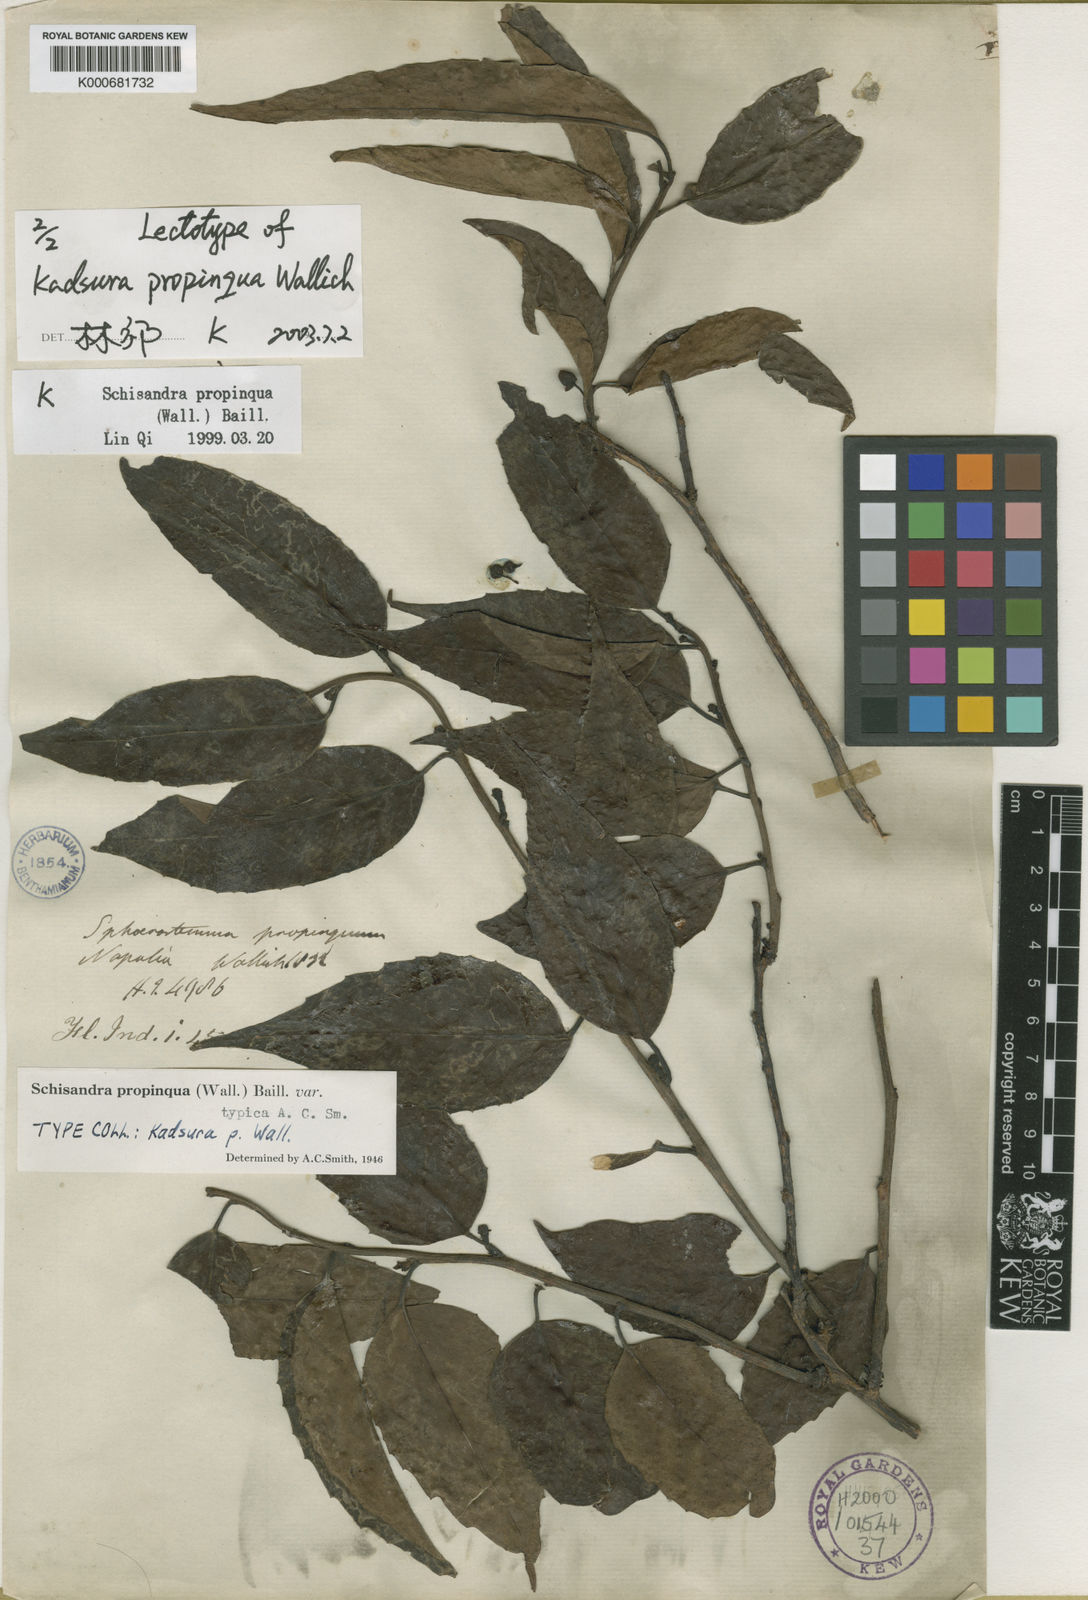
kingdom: Plantae
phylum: Tracheophyta
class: Magnoliopsida
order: Austrobaileyales
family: Schisandraceae
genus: Schisandra
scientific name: Schisandra propinqua
